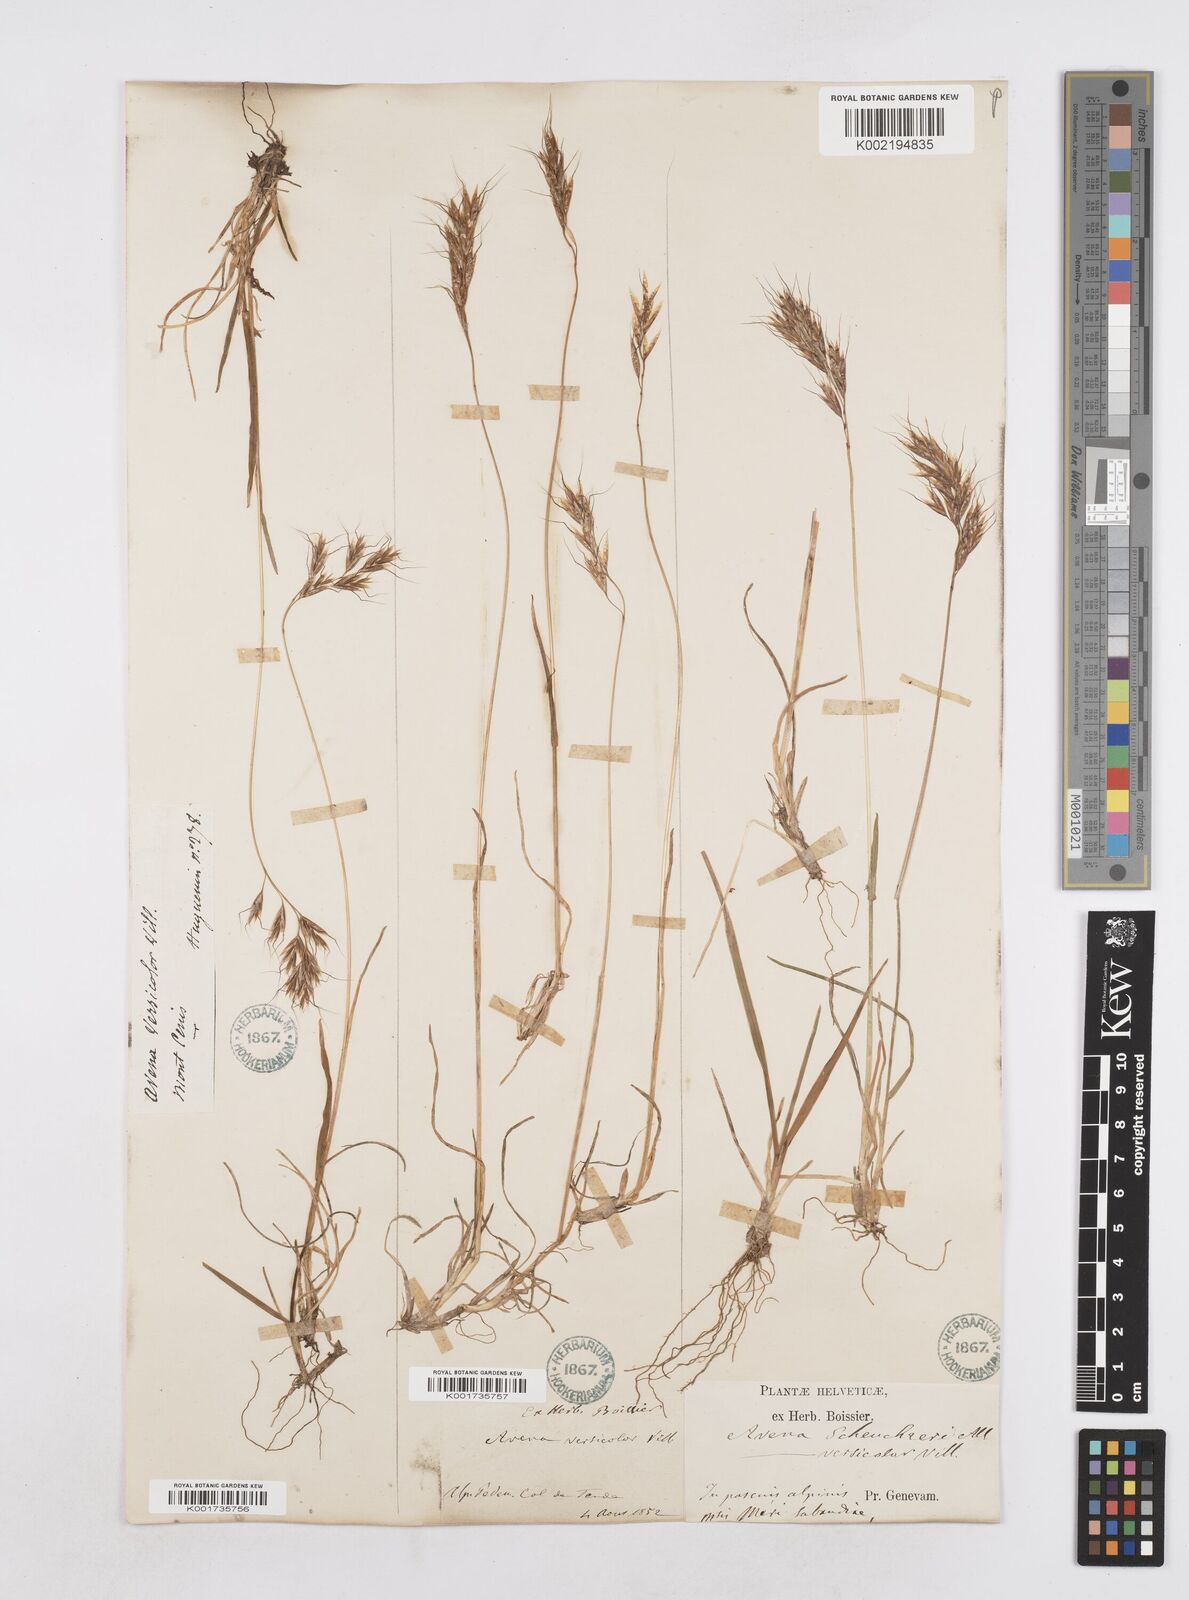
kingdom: Plantae
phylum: Tracheophyta
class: Liliopsida
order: Poales
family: Poaceae
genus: Helictotrichon
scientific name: Helictotrichon
